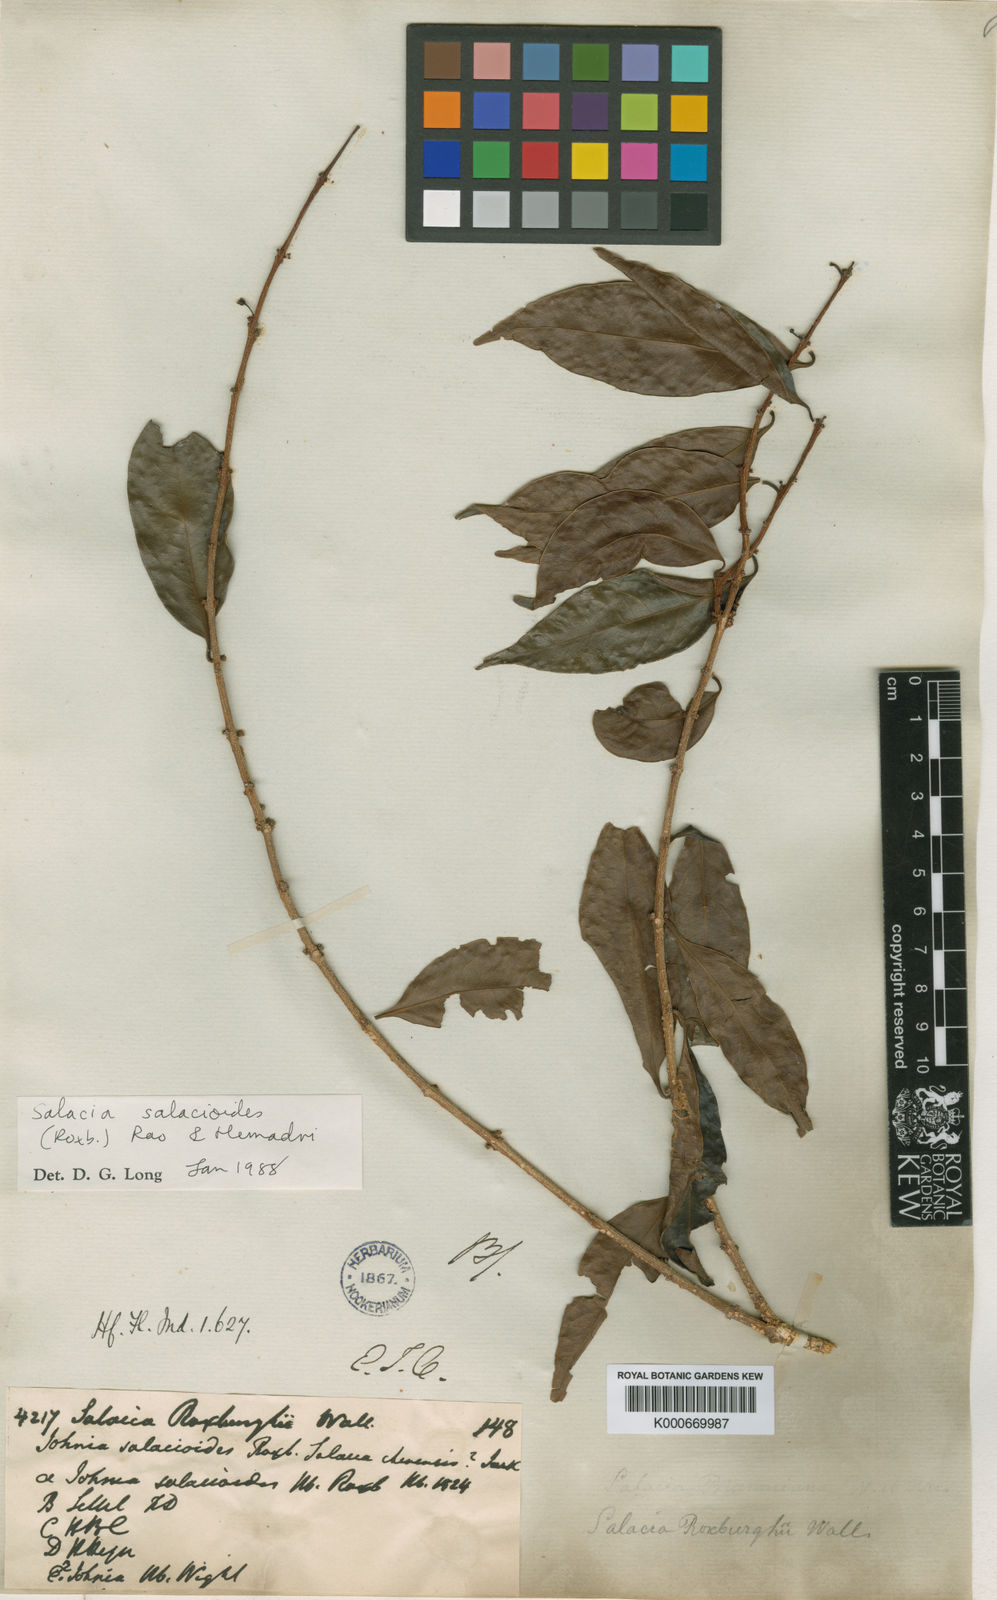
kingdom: Plantae
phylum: Tracheophyta
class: Magnoliopsida
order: Celastrales
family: Celastraceae
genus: Salacia
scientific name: Salacia
